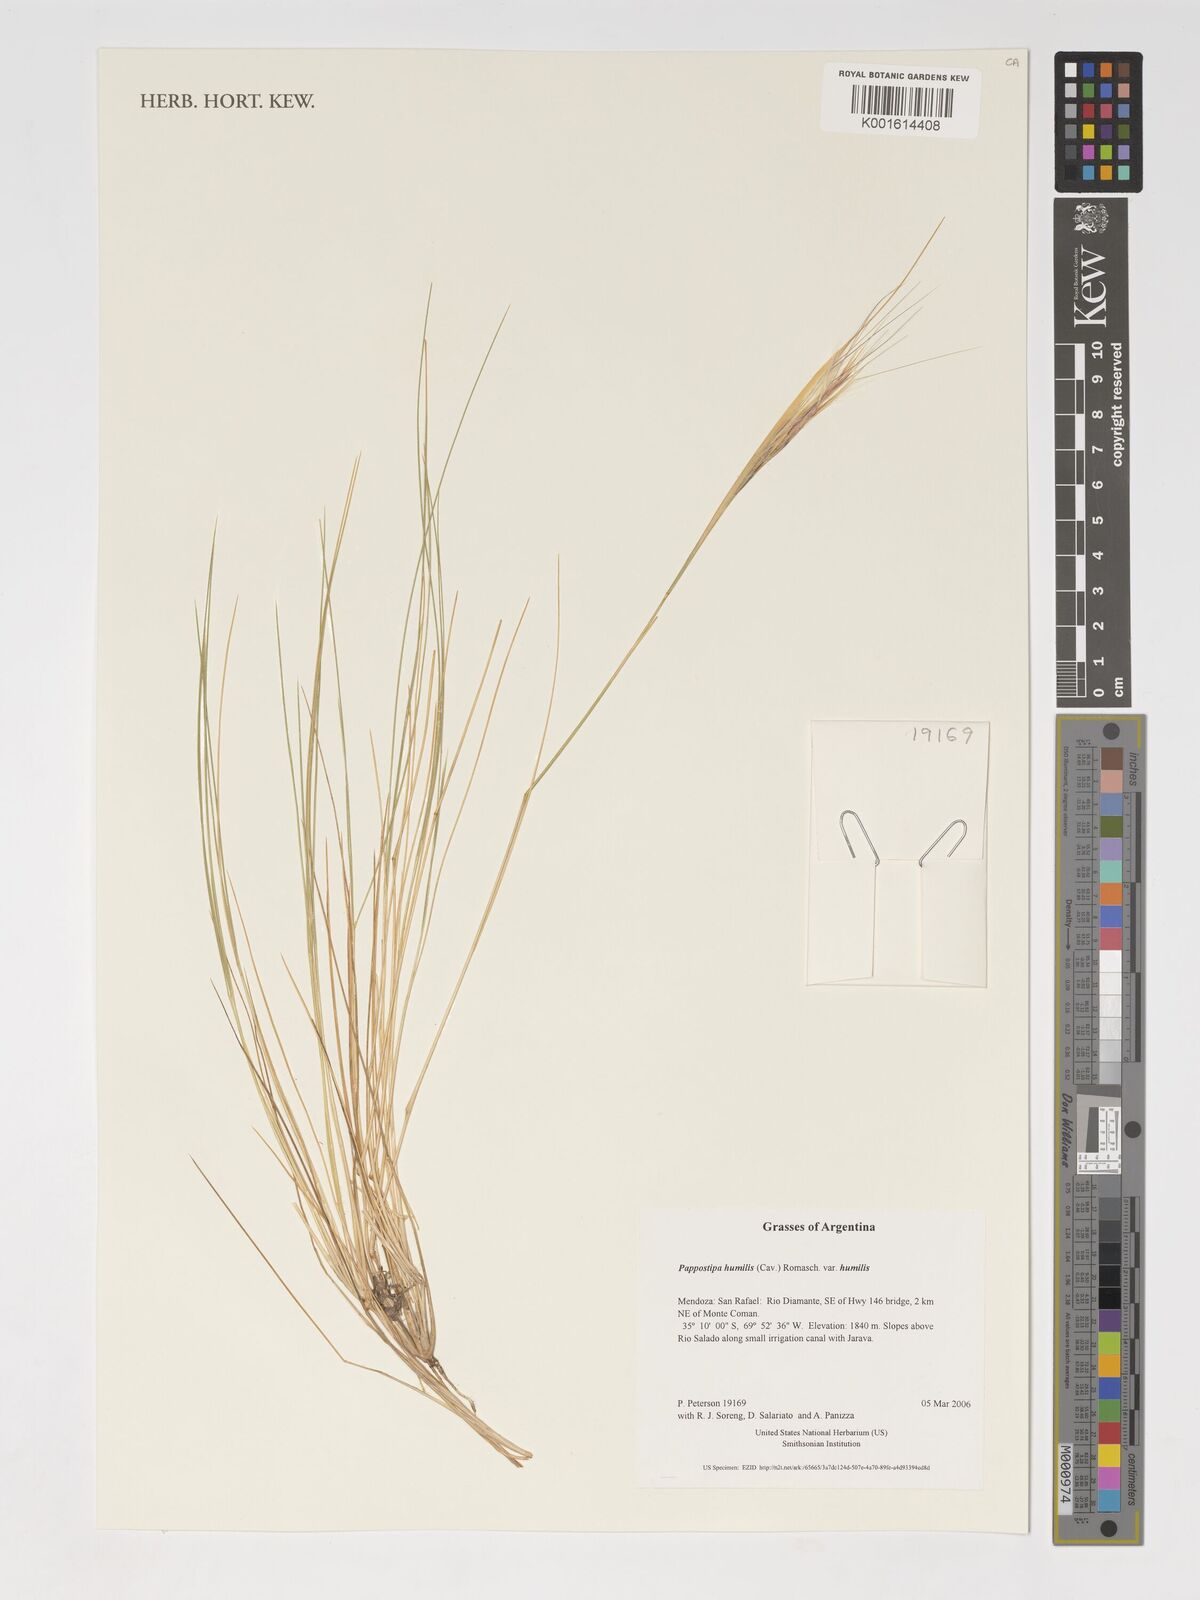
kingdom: Plantae
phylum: Tracheophyta
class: Liliopsida
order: Poales
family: Poaceae
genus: Pappostipa
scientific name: Pappostipa humilis
